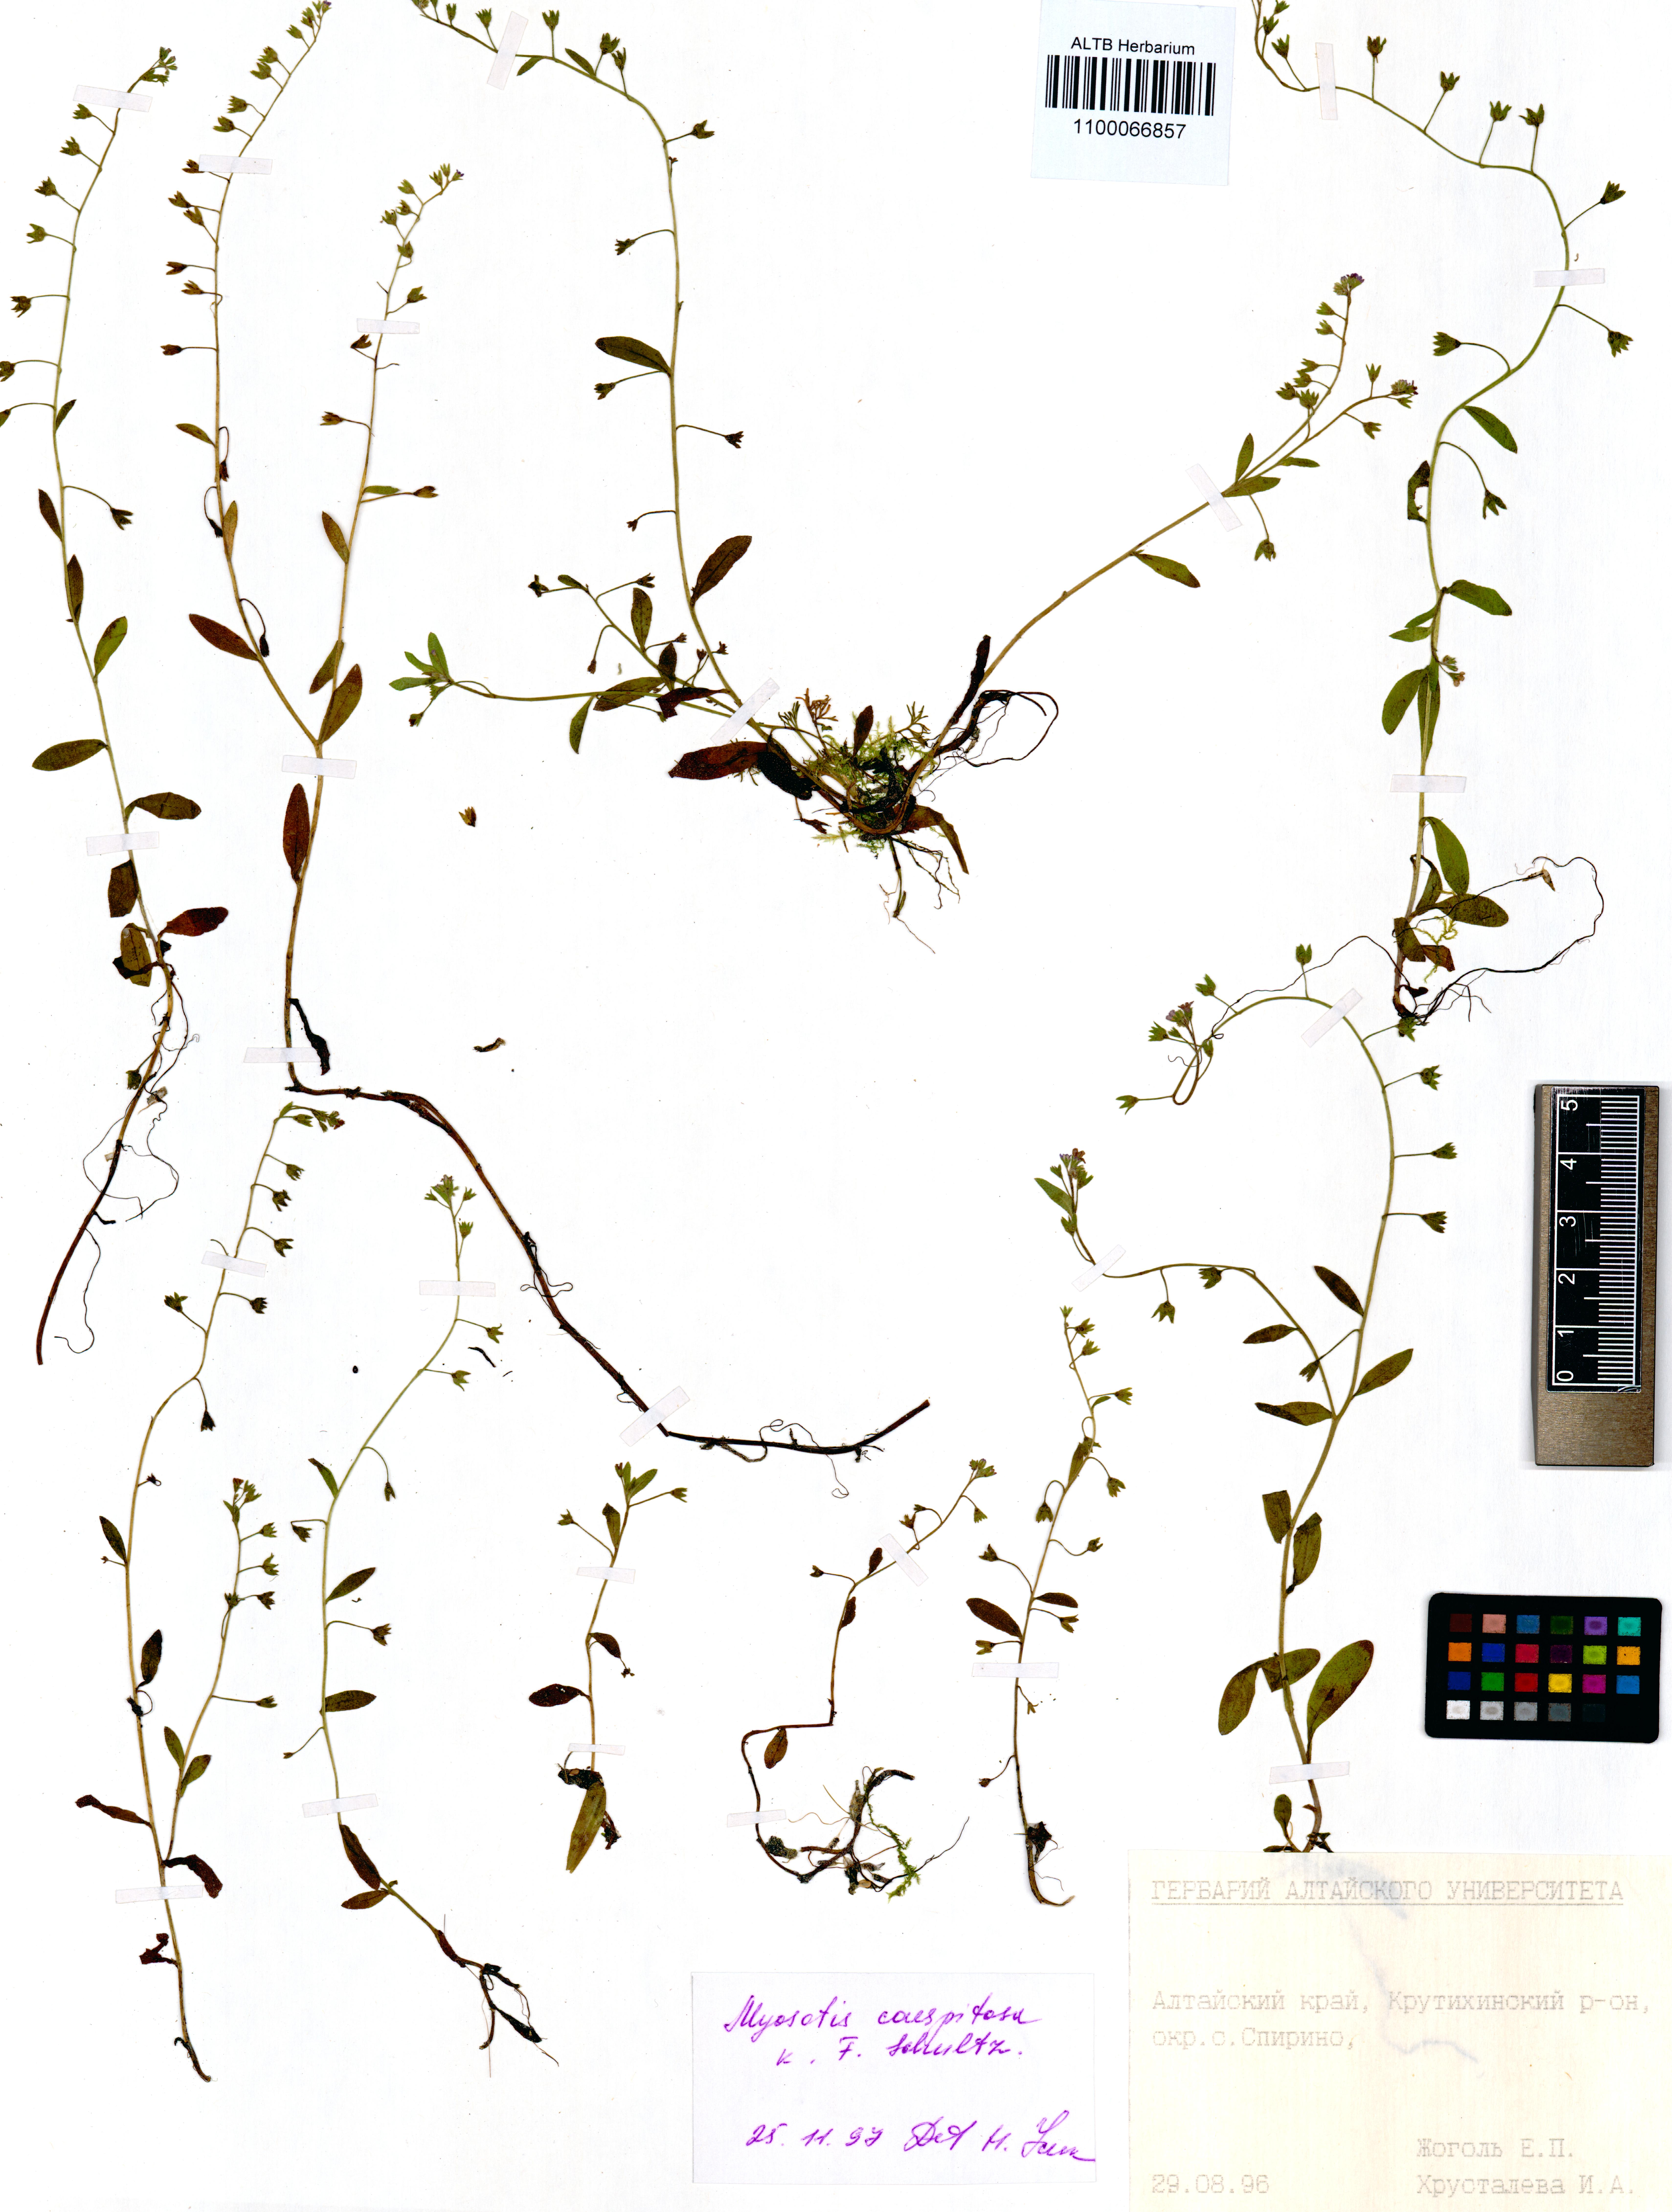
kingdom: Plantae
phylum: Tracheophyta
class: Magnoliopsida
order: Boraginales
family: Boraginaceae
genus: Myosotis
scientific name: Myosotis laxa
